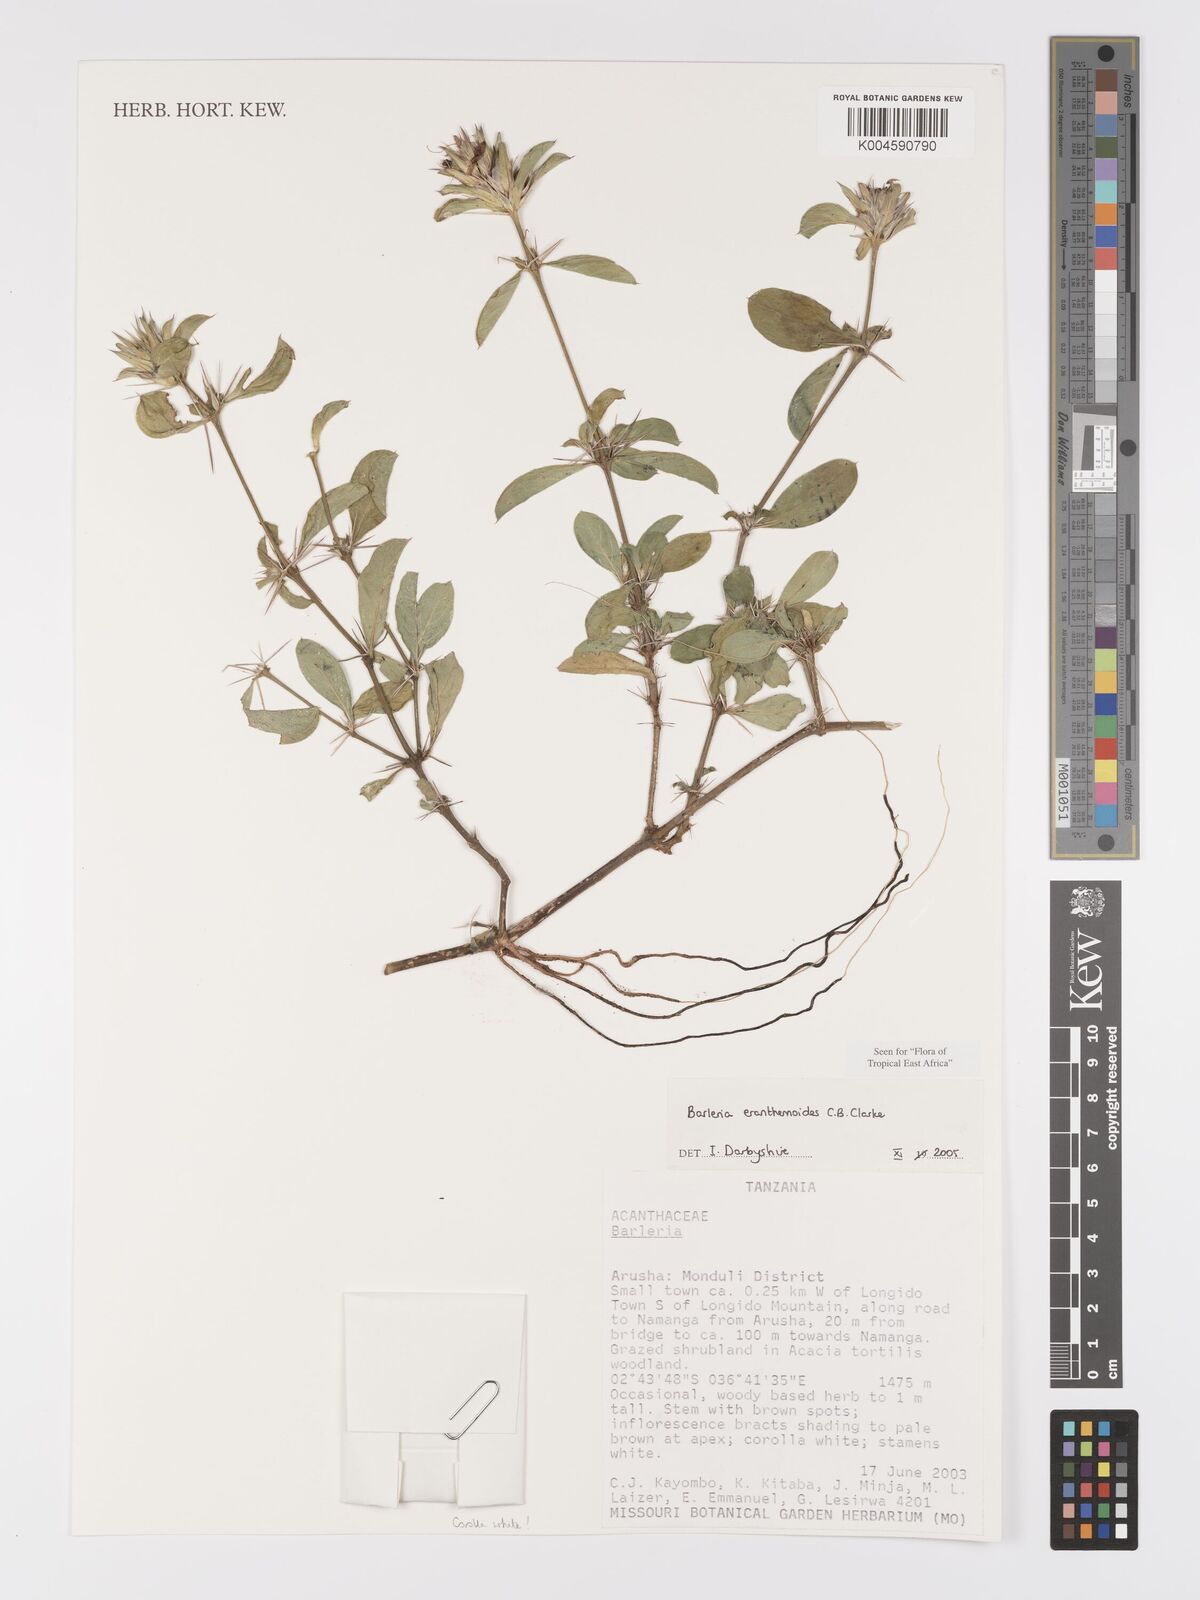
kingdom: Plantae
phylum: Tracheophyta
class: Magnoliopsida
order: Lamiales
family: Acanthaceae
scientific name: Acanthaceae
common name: Acanthaceae
